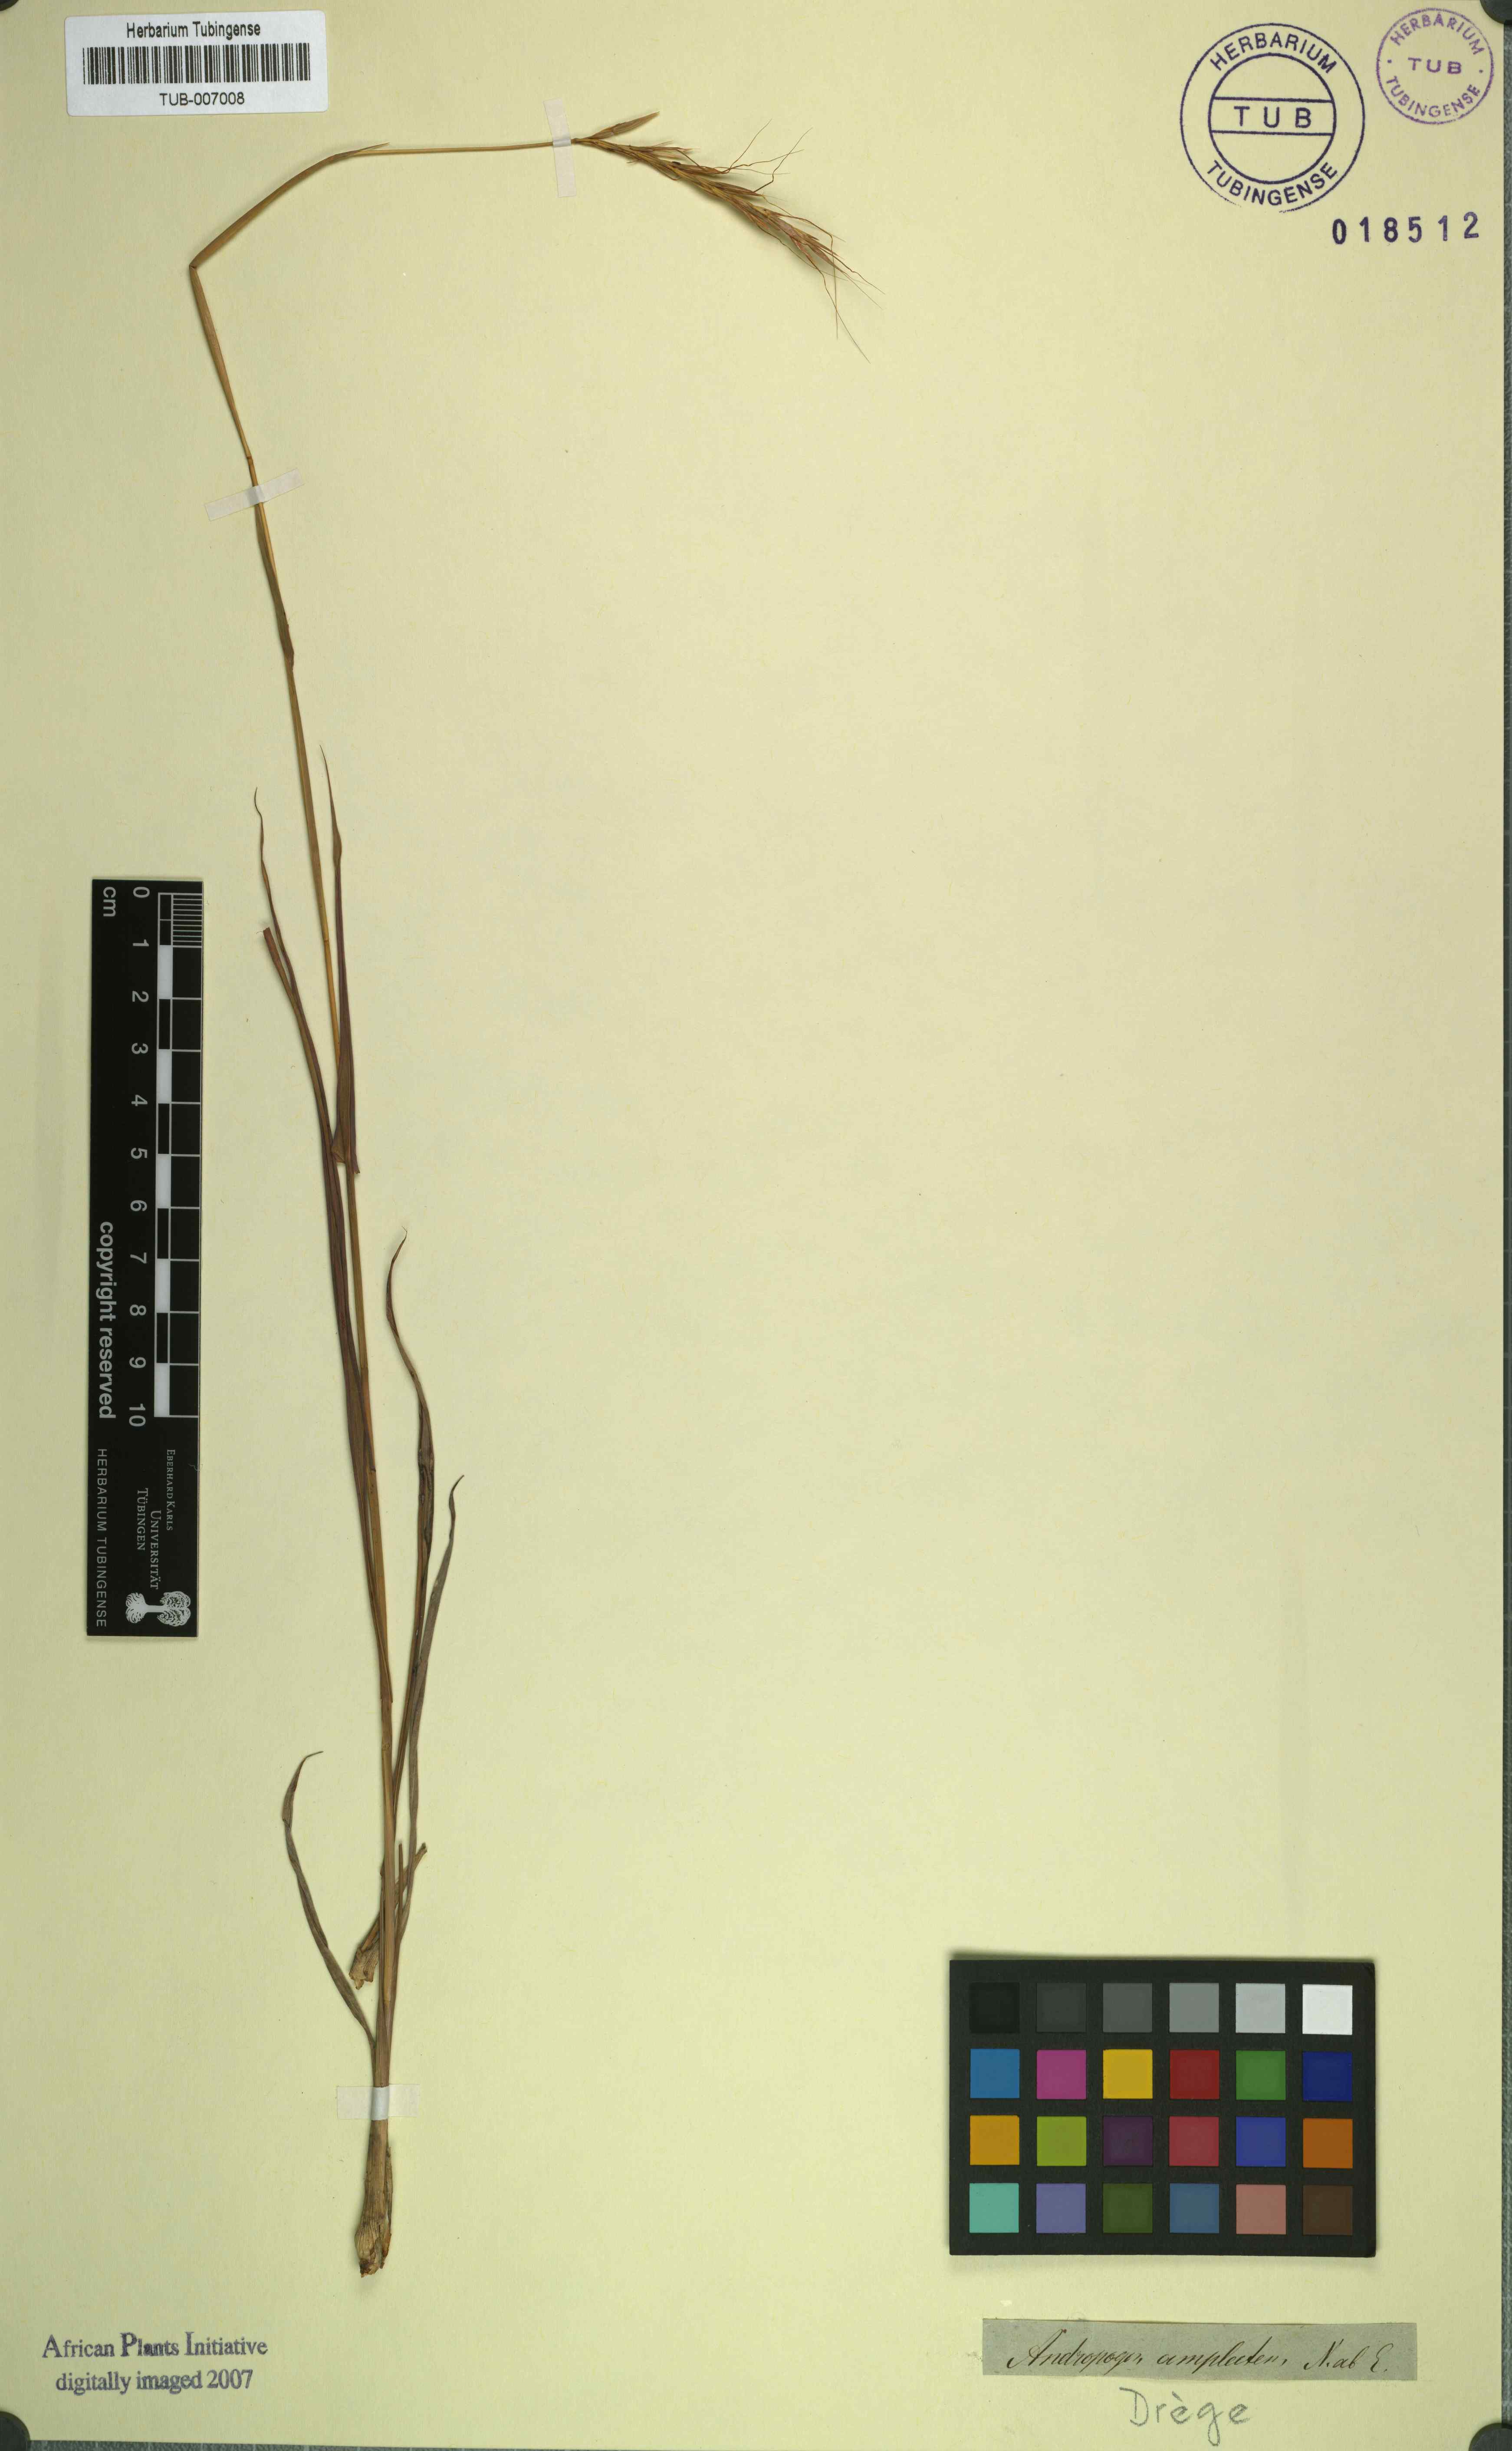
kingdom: Plantae
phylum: Tracheophyta
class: Liliopsida
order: Poales
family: Poaceae
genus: Diheteropogon
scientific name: Diheteropogon amplectens
